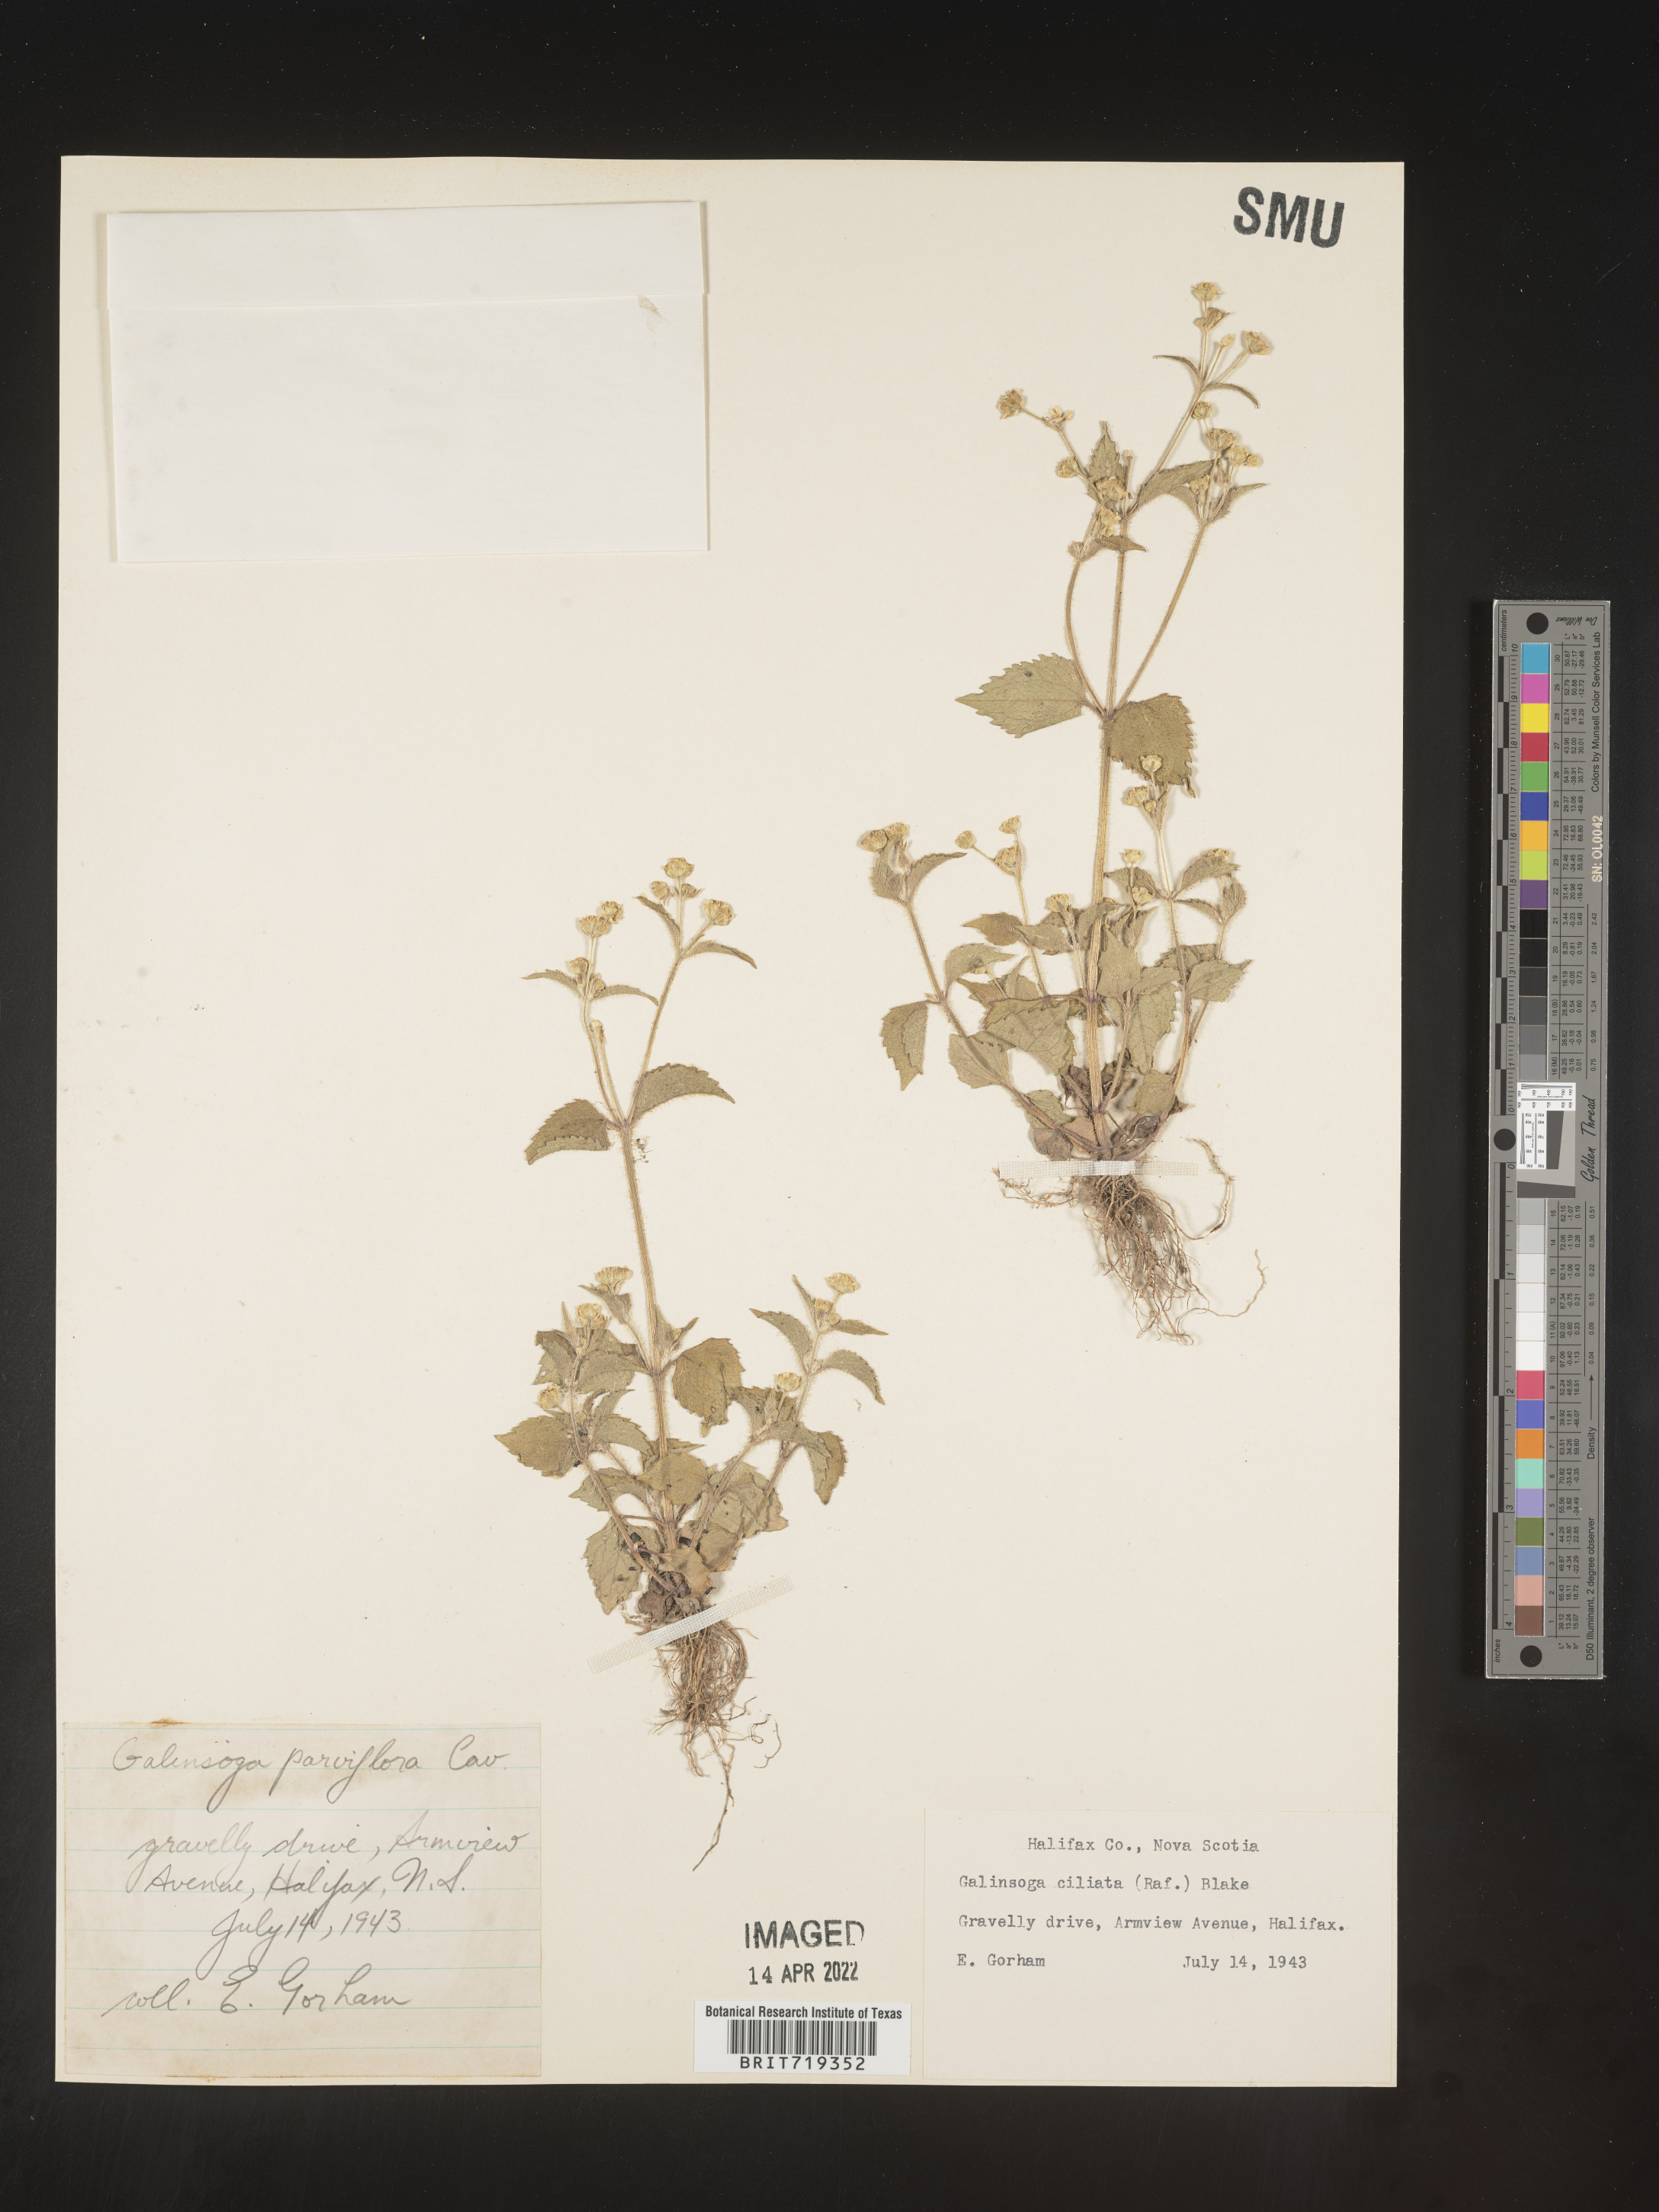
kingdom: Plantae
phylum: Tracheophyta
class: Magnoliopsida
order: Asterales
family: Asteraceae
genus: Galinsoga
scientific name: Galinsoga quadriradiata
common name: Shaggy soldier
